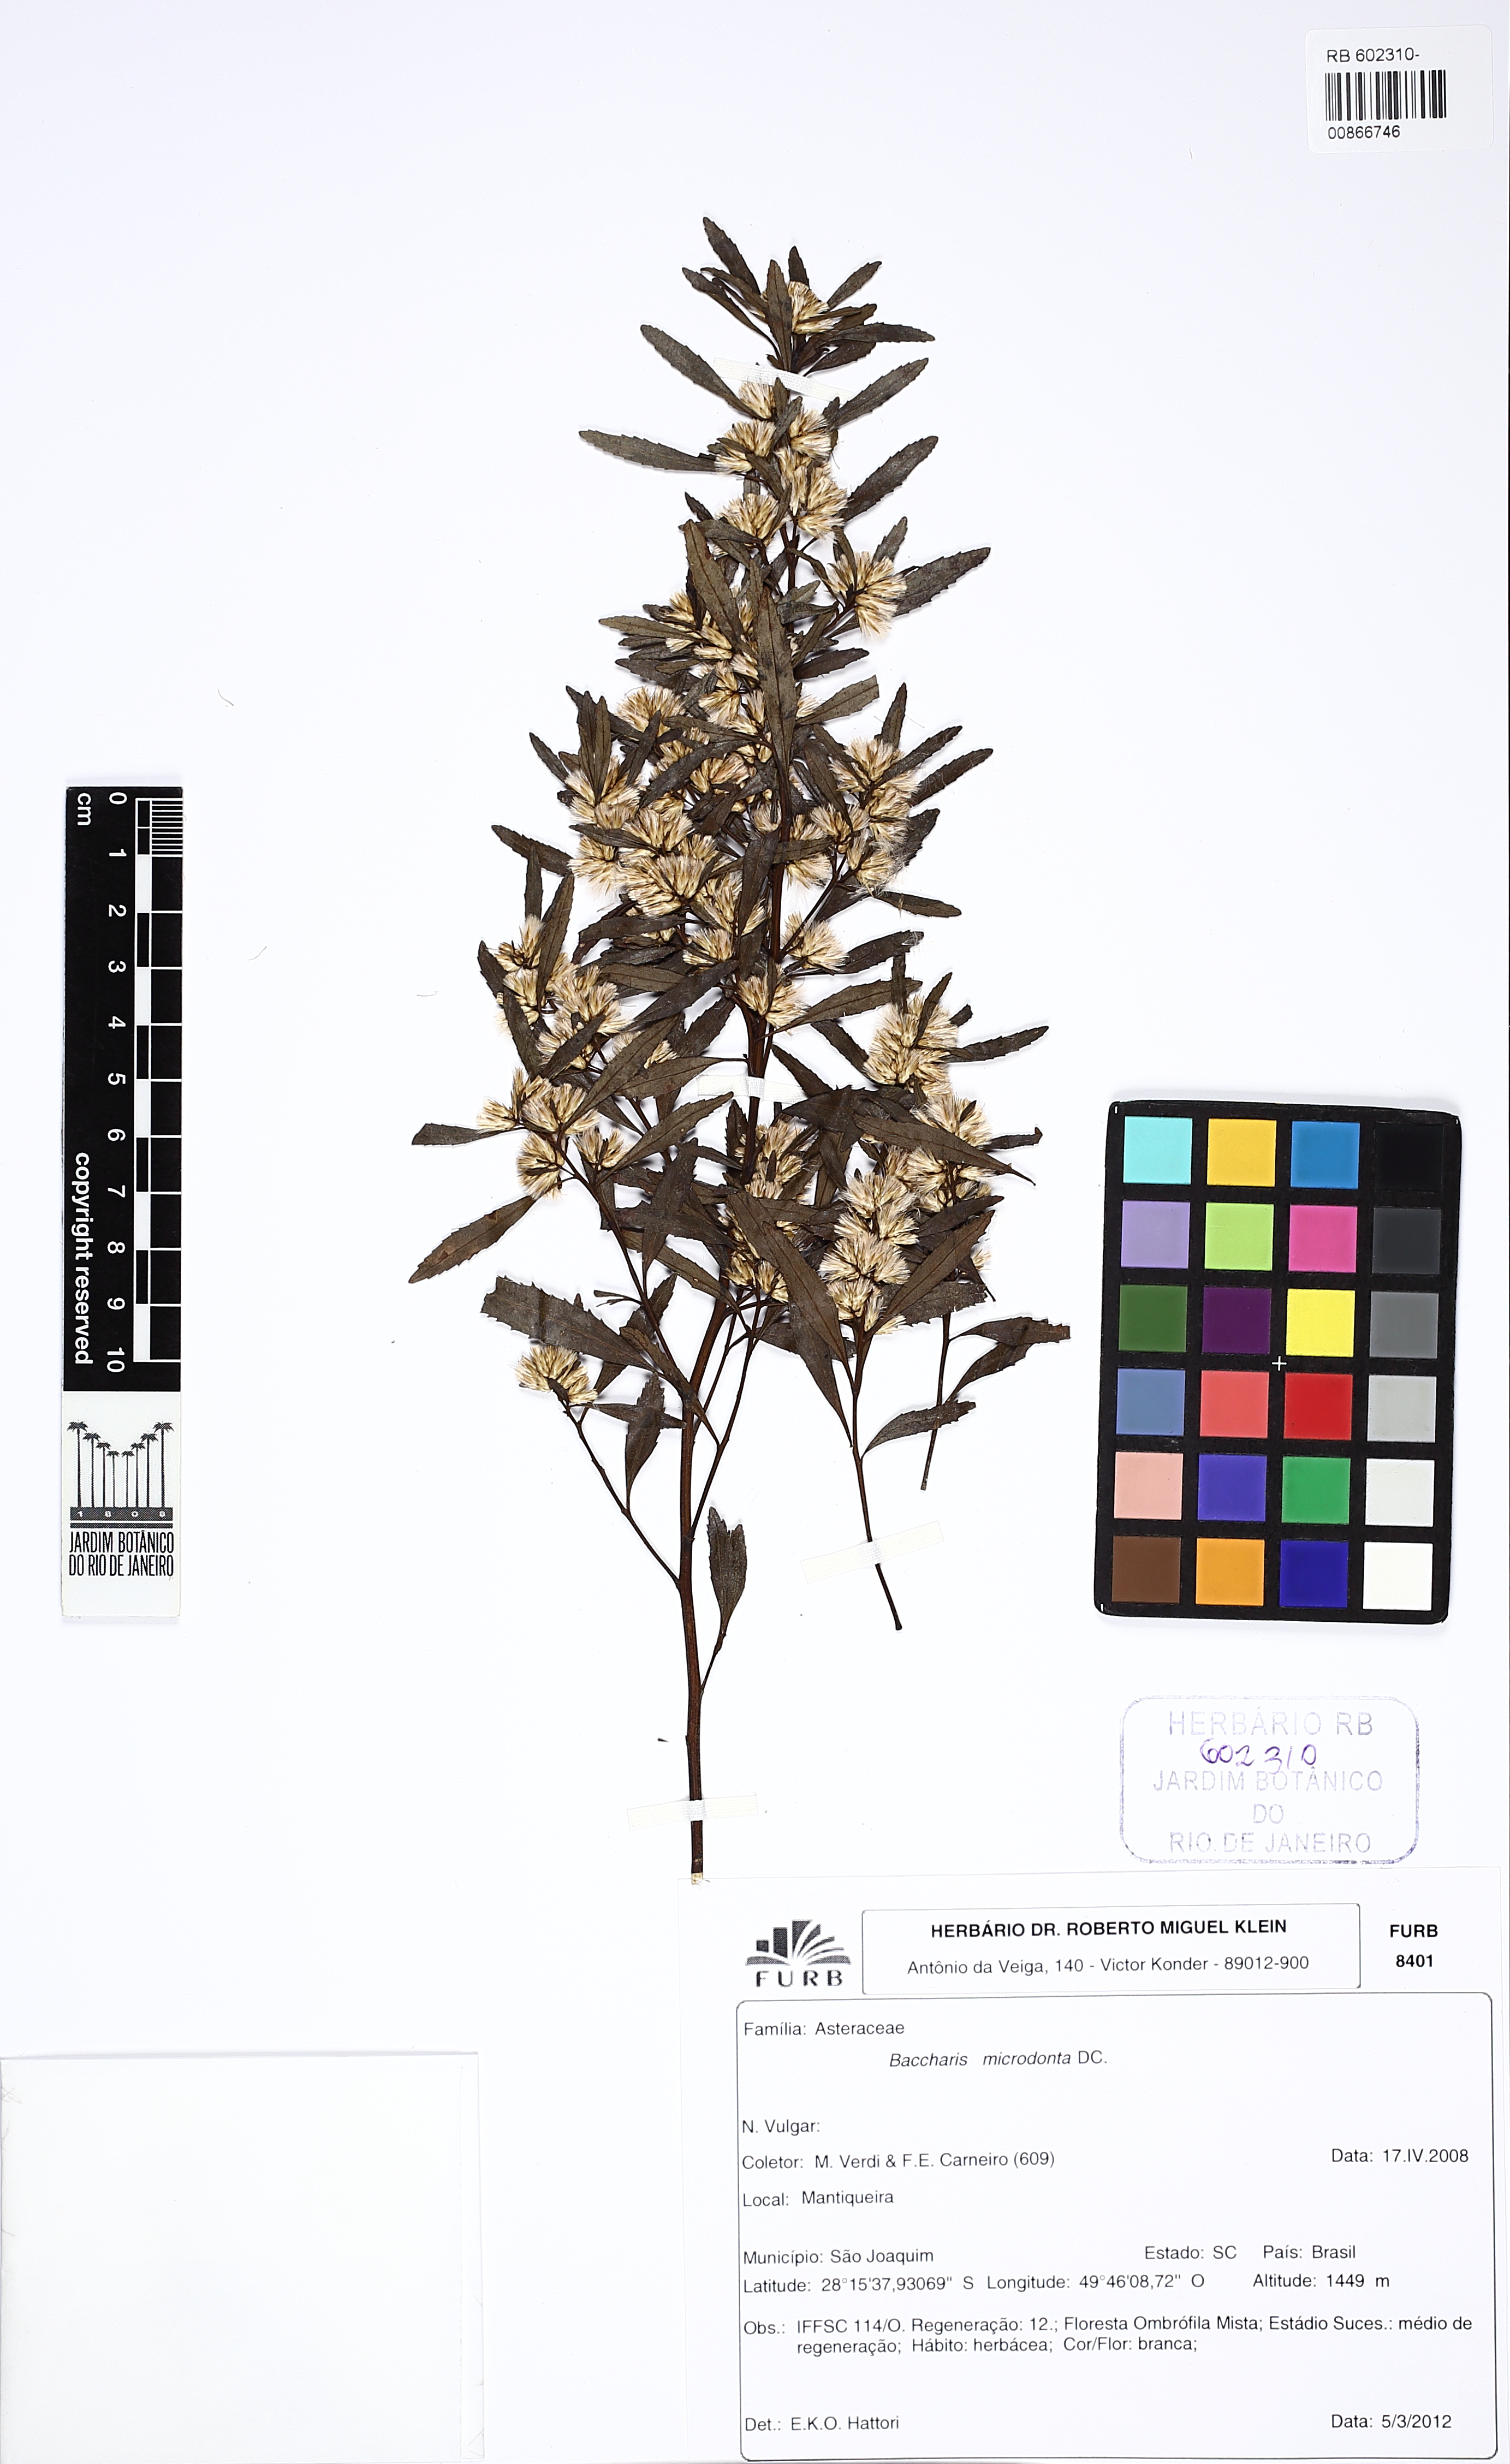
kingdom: Plantae
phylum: Tracheophyta
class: Magnoliopsida
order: Asterales
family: Asteraceae
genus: Baccharis
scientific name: Baccharis microdonta
